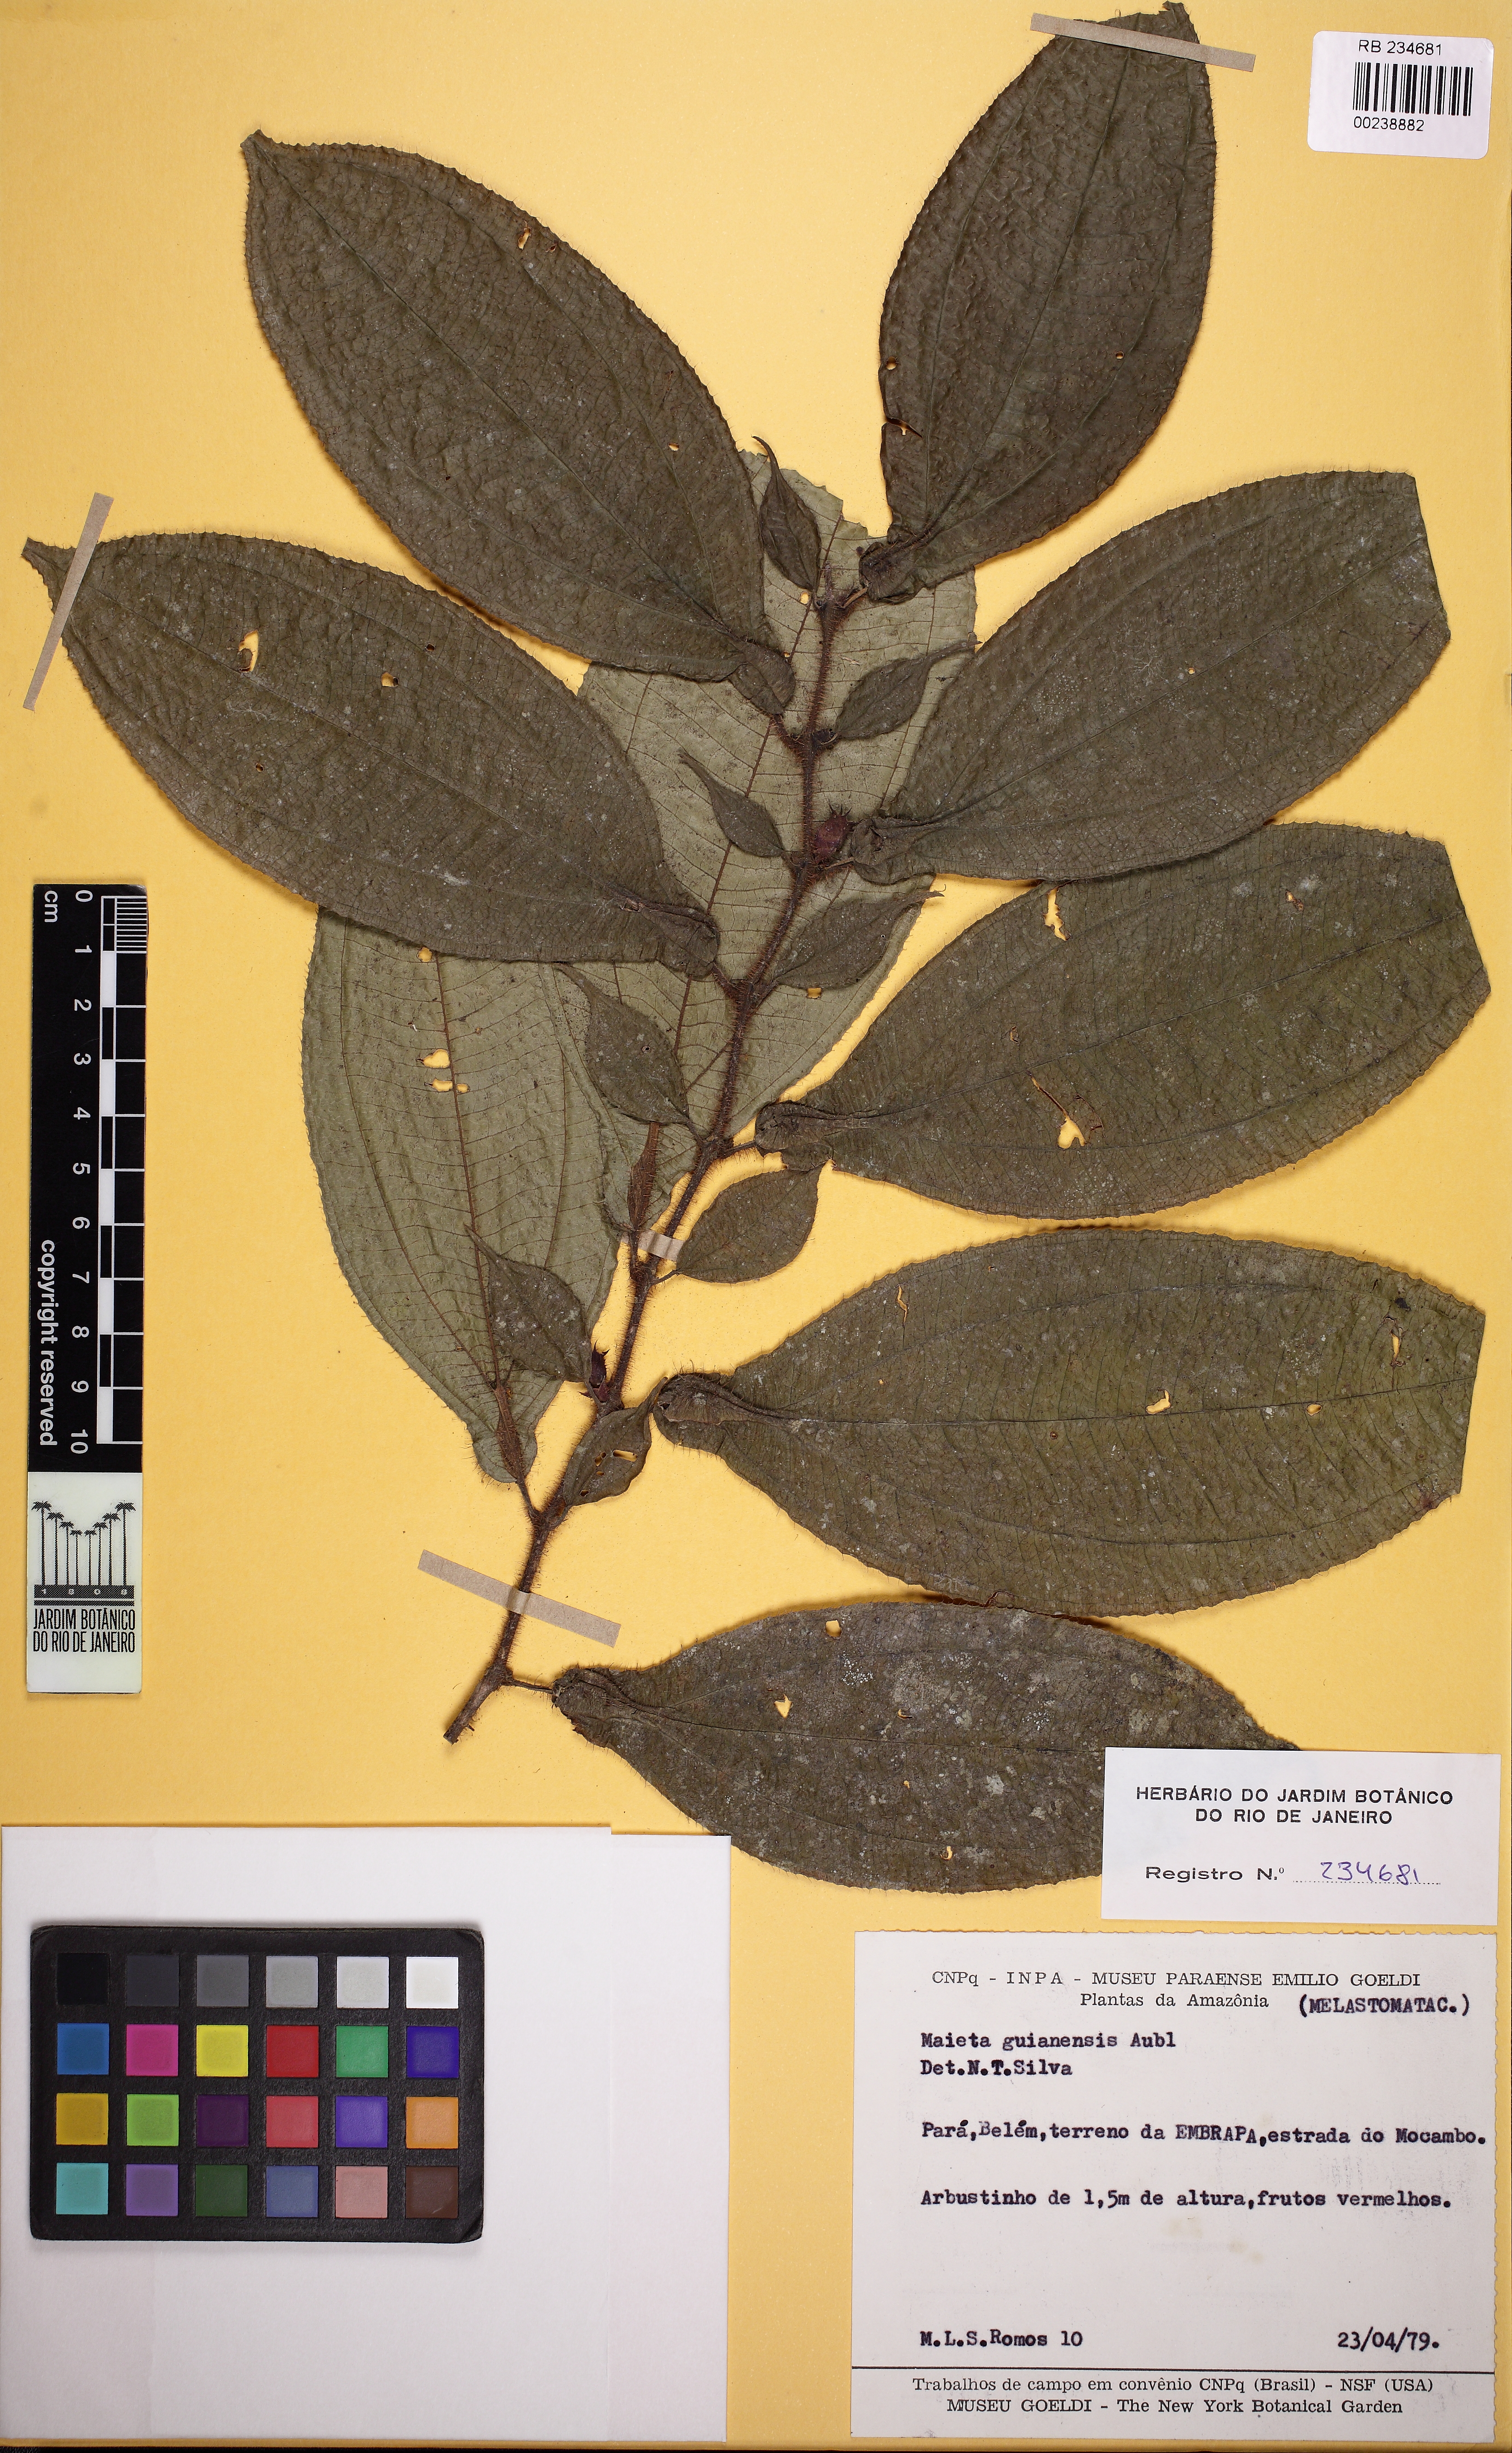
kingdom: Plantae
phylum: Tracheophyta
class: Magnoliopsida
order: Myrtales
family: Melastomataceae
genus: Miconia
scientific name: Miconia argyrophylla
